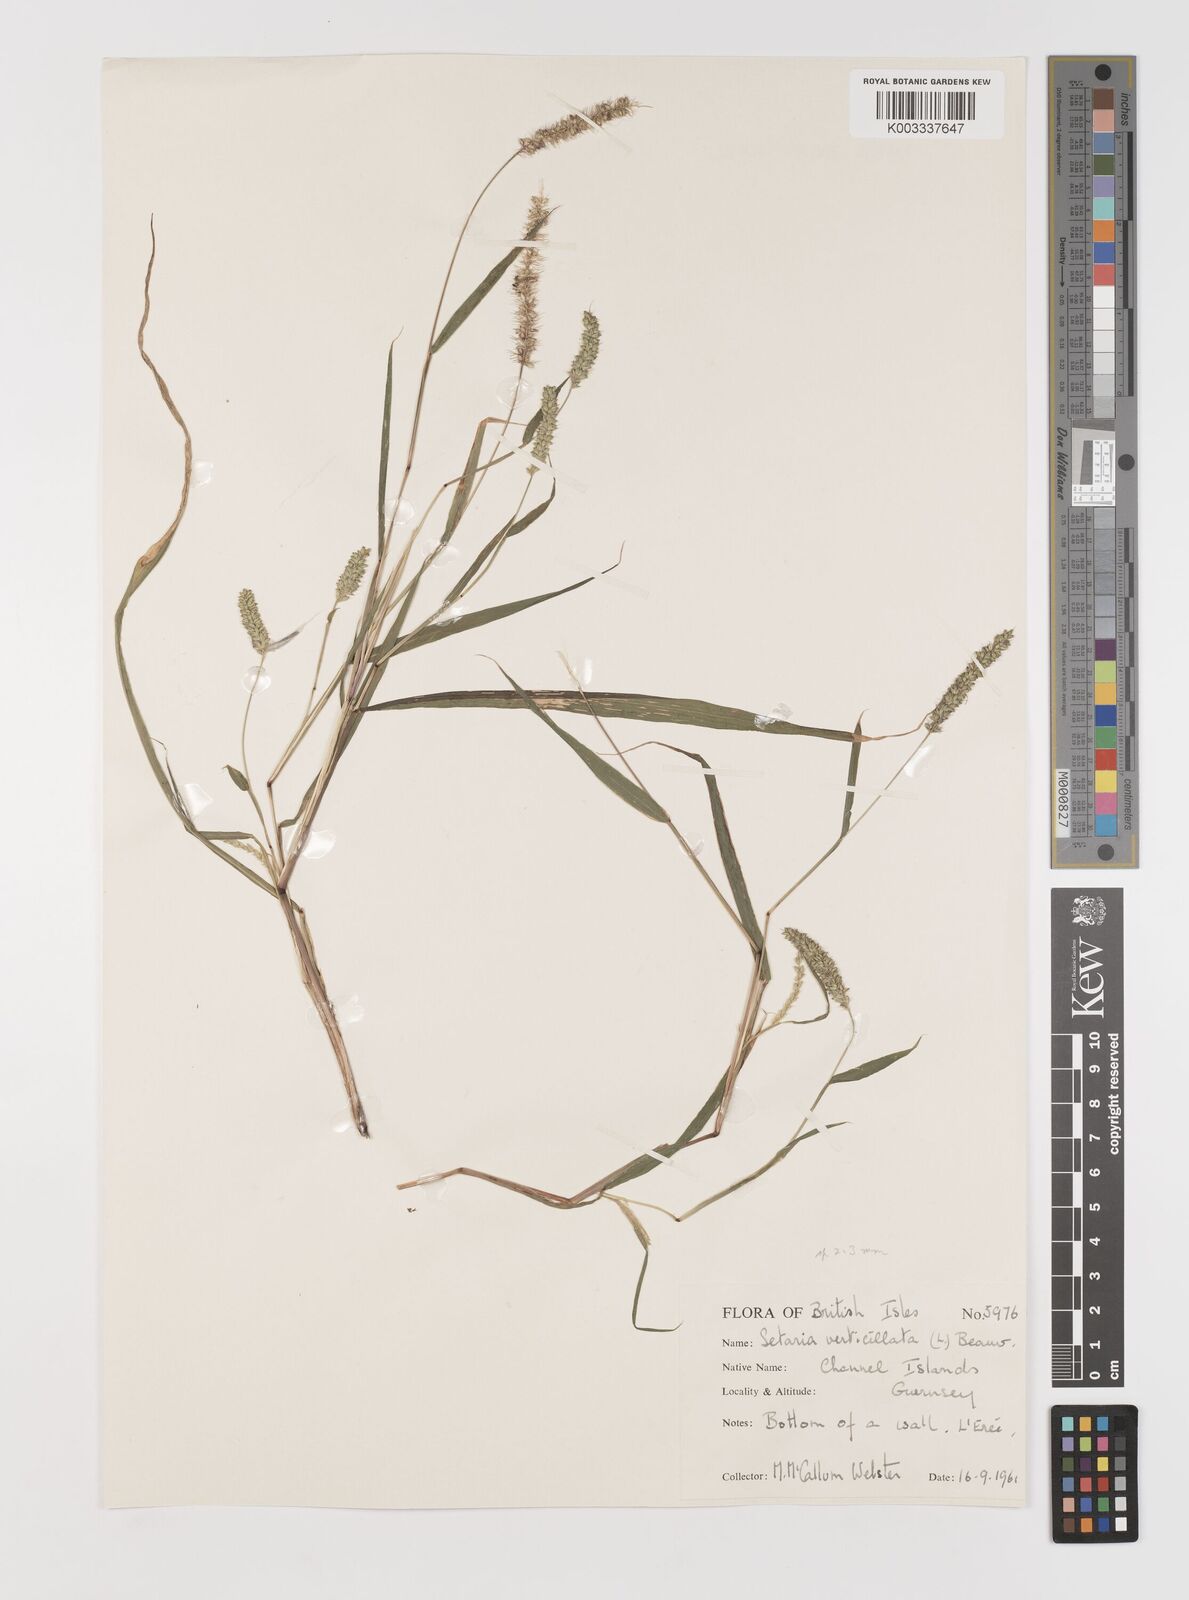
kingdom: Plantae
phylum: Tracheophyta
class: Liliopsida
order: Poales
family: Poaceae
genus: Setaria
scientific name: Setaria verticillata
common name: Hooked bristlegrass
